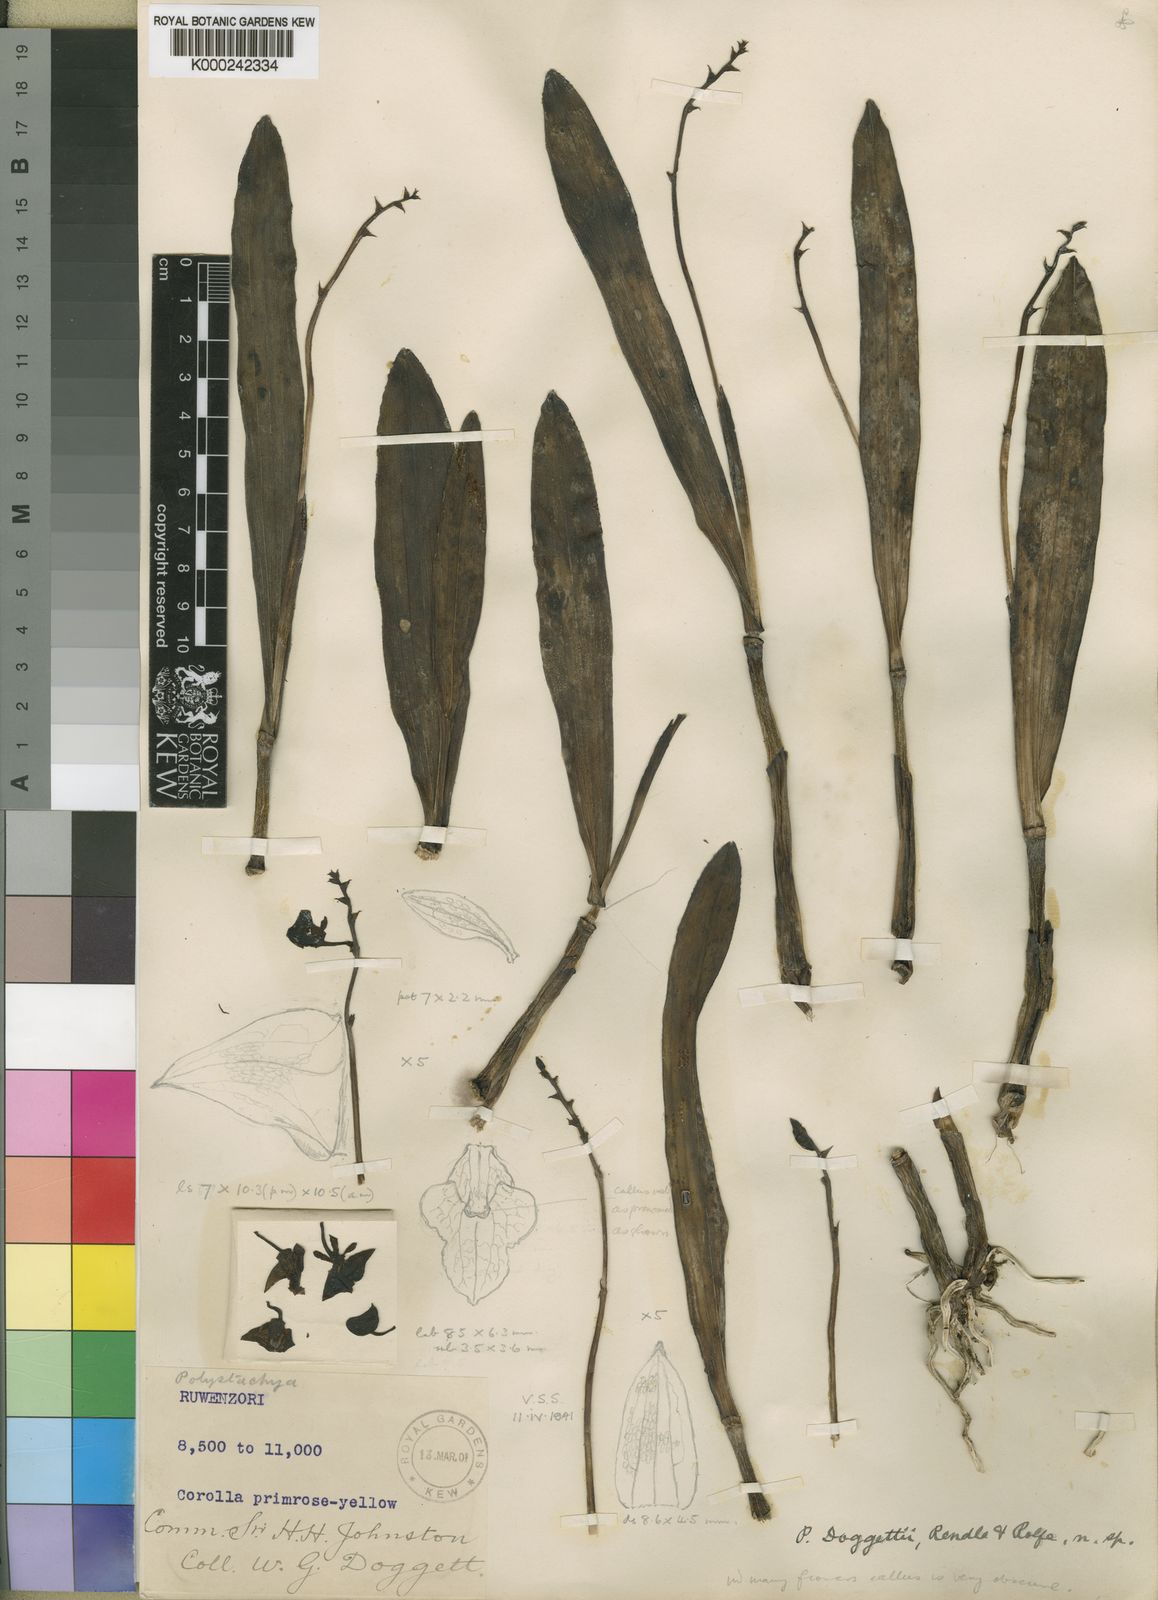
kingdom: Plantae
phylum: Tracheophyta
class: Liliopsida
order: Asparagales
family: Orchidaceae
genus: Polystachya
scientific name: Polystachya doggettii
